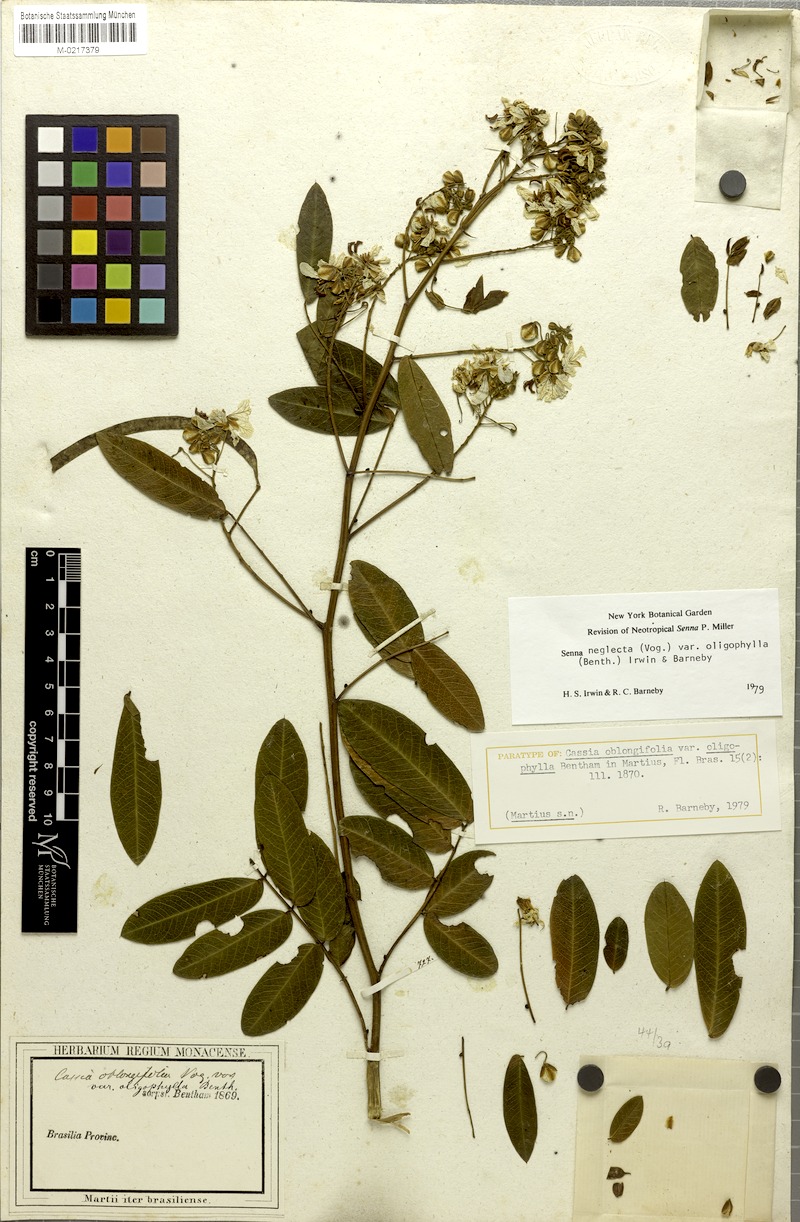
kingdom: Plantae
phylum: Tracheophyta
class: Magnoliopsida
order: Fabales
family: Fabaceae
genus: Senna
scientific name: Senna neglecta
